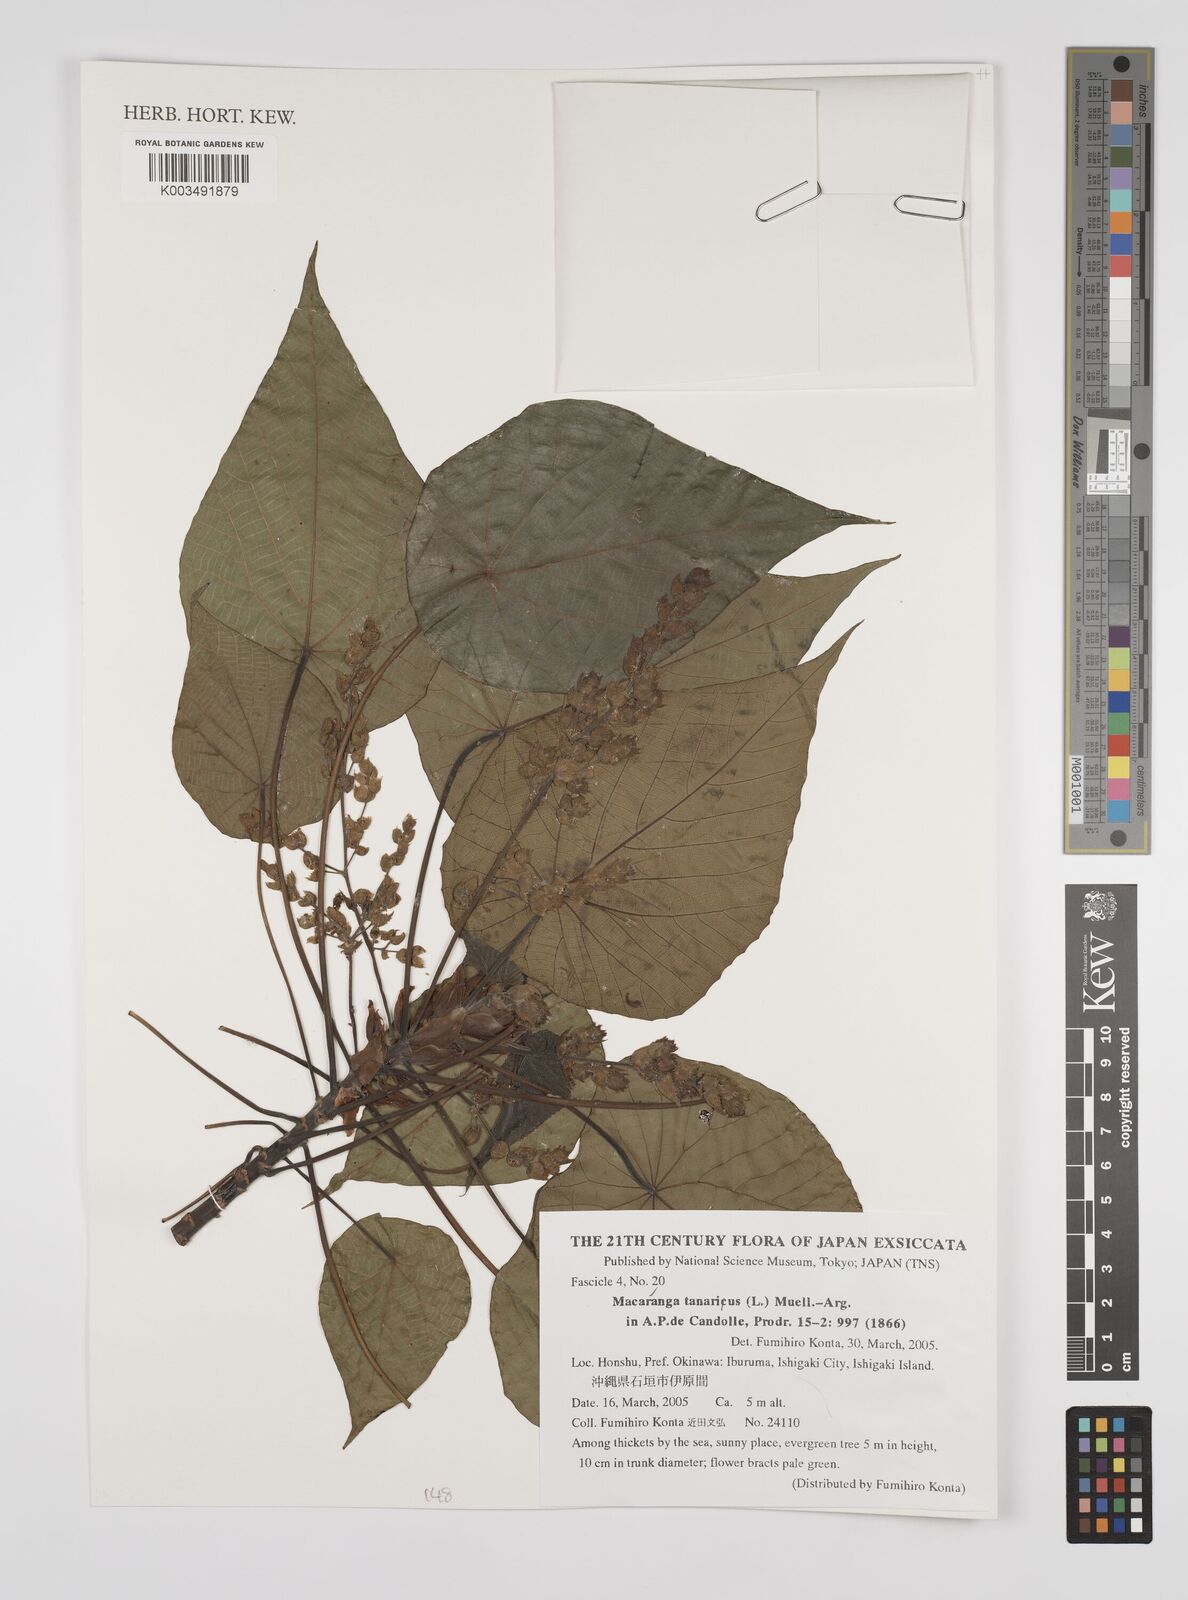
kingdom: Plantae
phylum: Tracheophyta
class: Magnoliopsida
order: Malpighiales
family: Euphorbiaceae
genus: Macaranga
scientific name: Macaranga tanarius
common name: Parasol leaf tree
